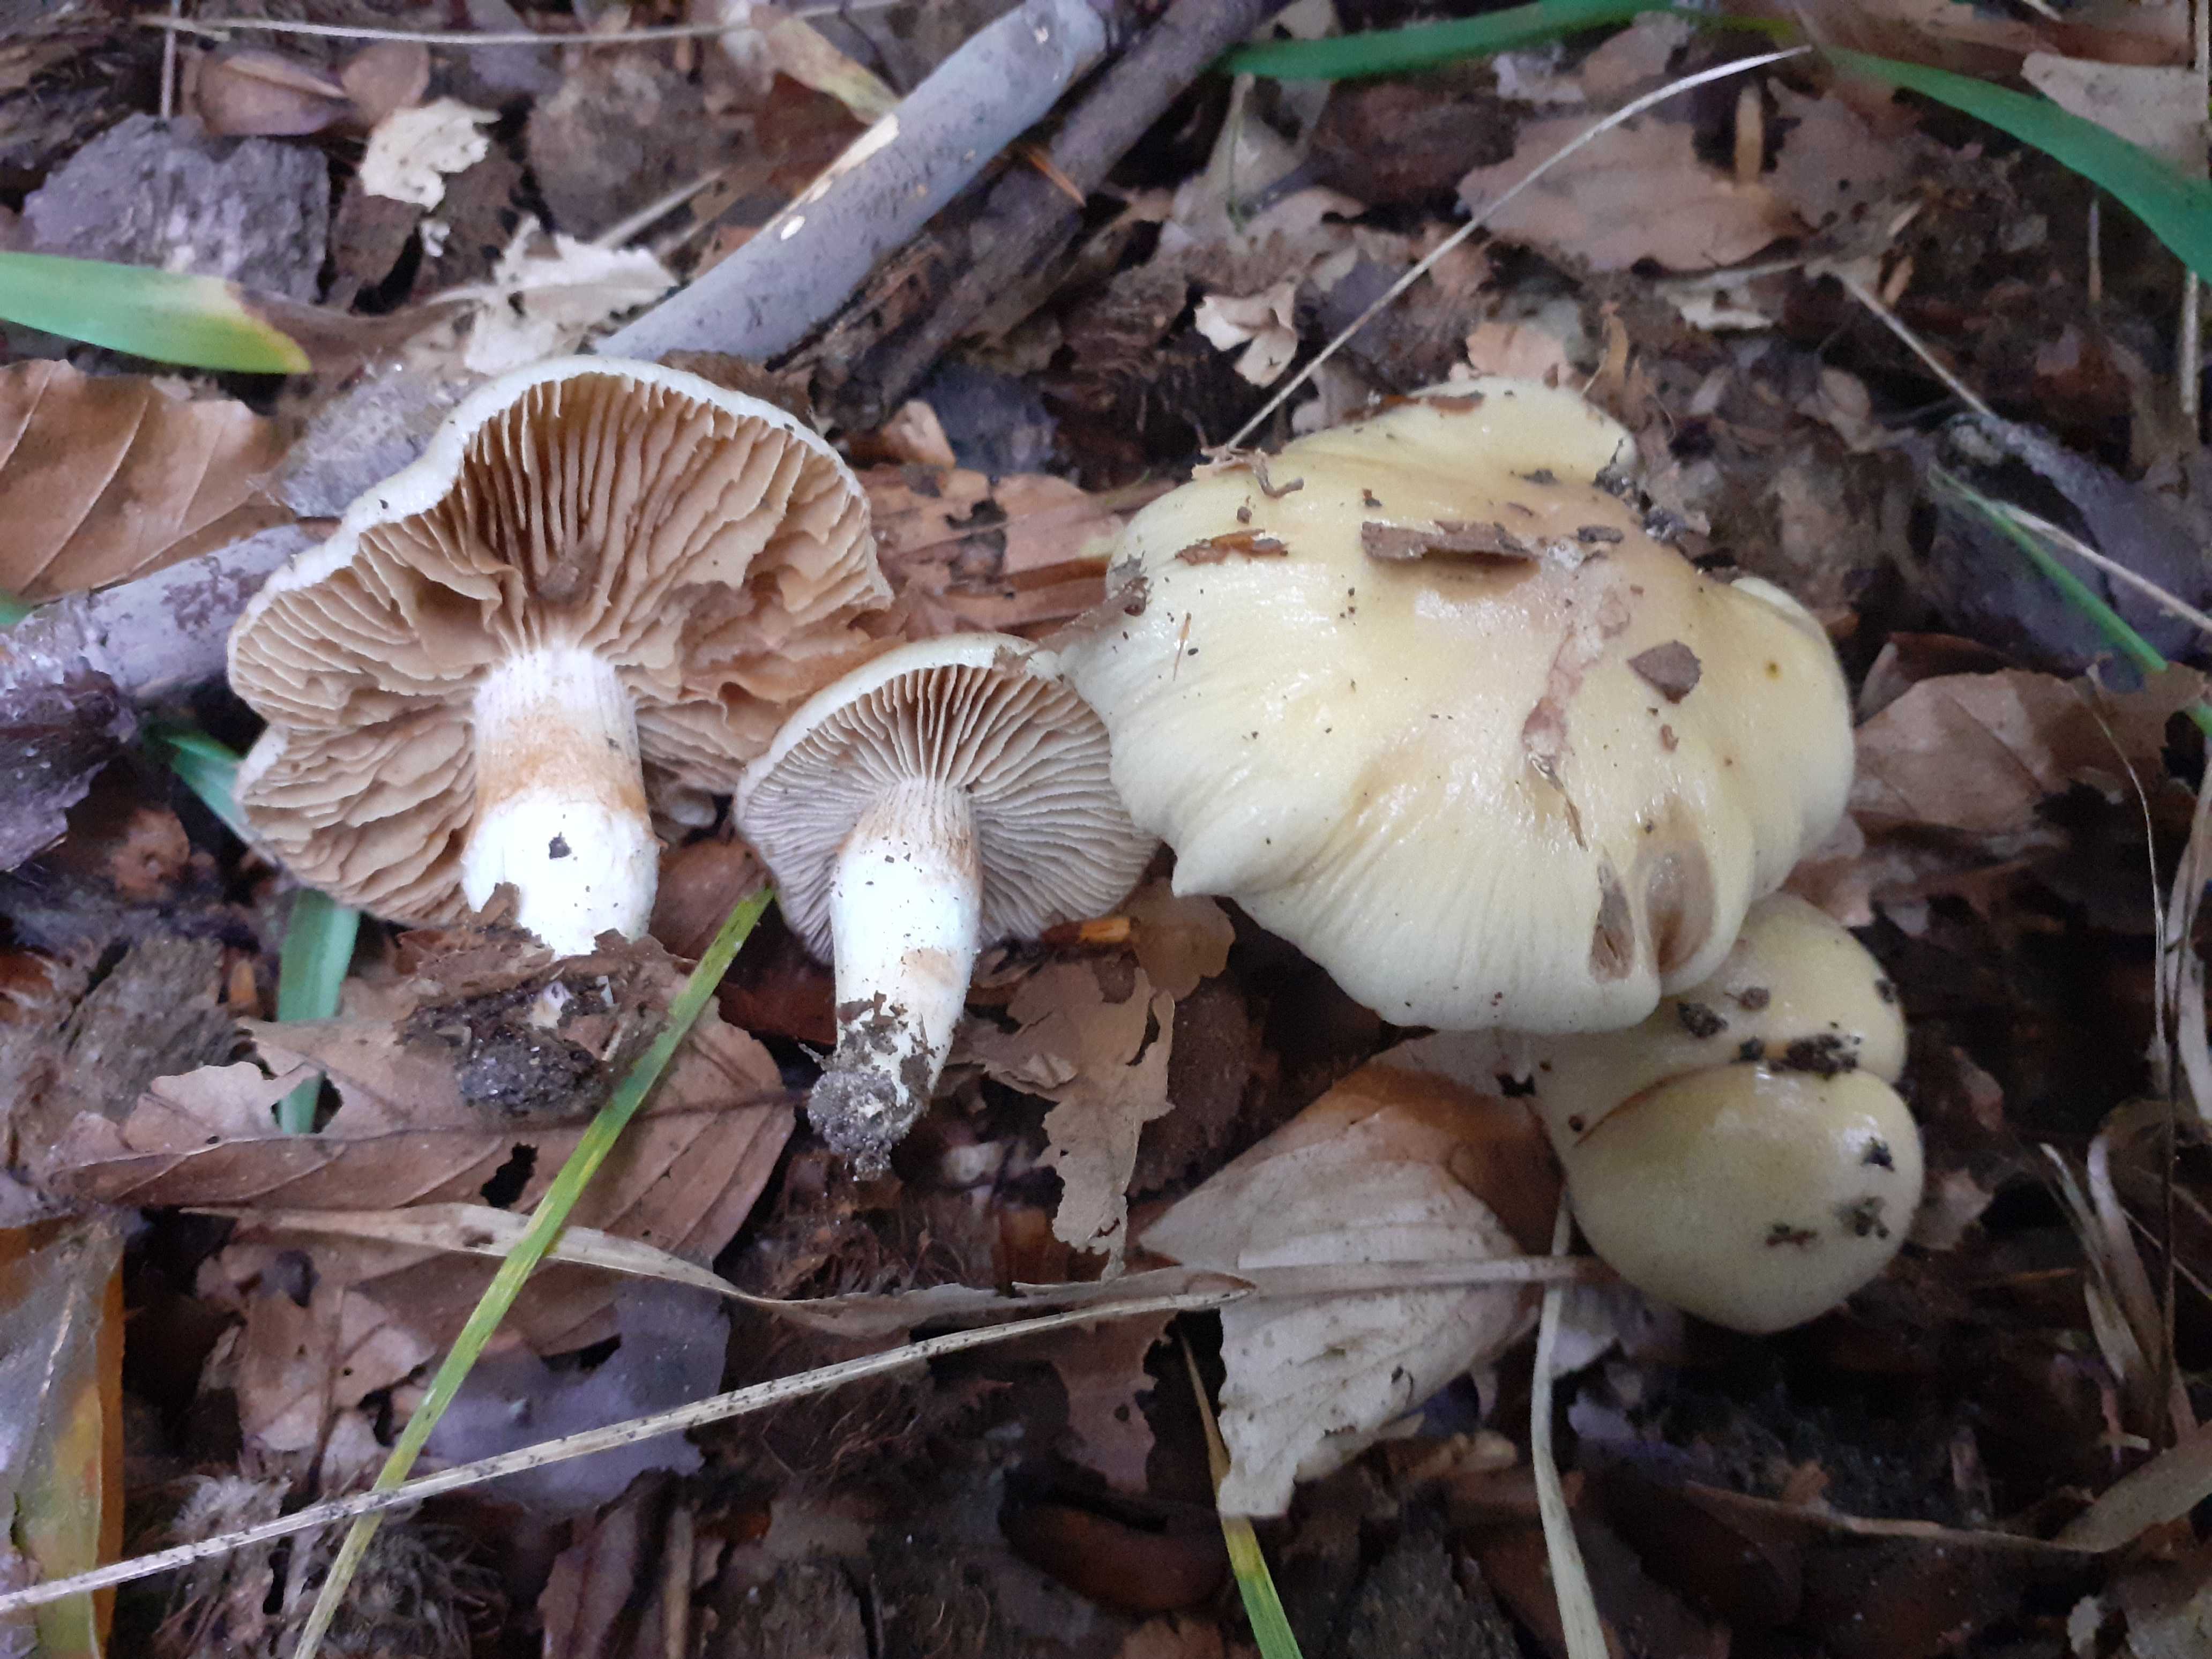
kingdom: Fungi
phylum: Basidiomycota
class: Agaricomycetes
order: Agaricales
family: Cortinariaceae
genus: Cortinarius
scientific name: Cortinarius livido-ochraceus
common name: halvhøj slørhat
